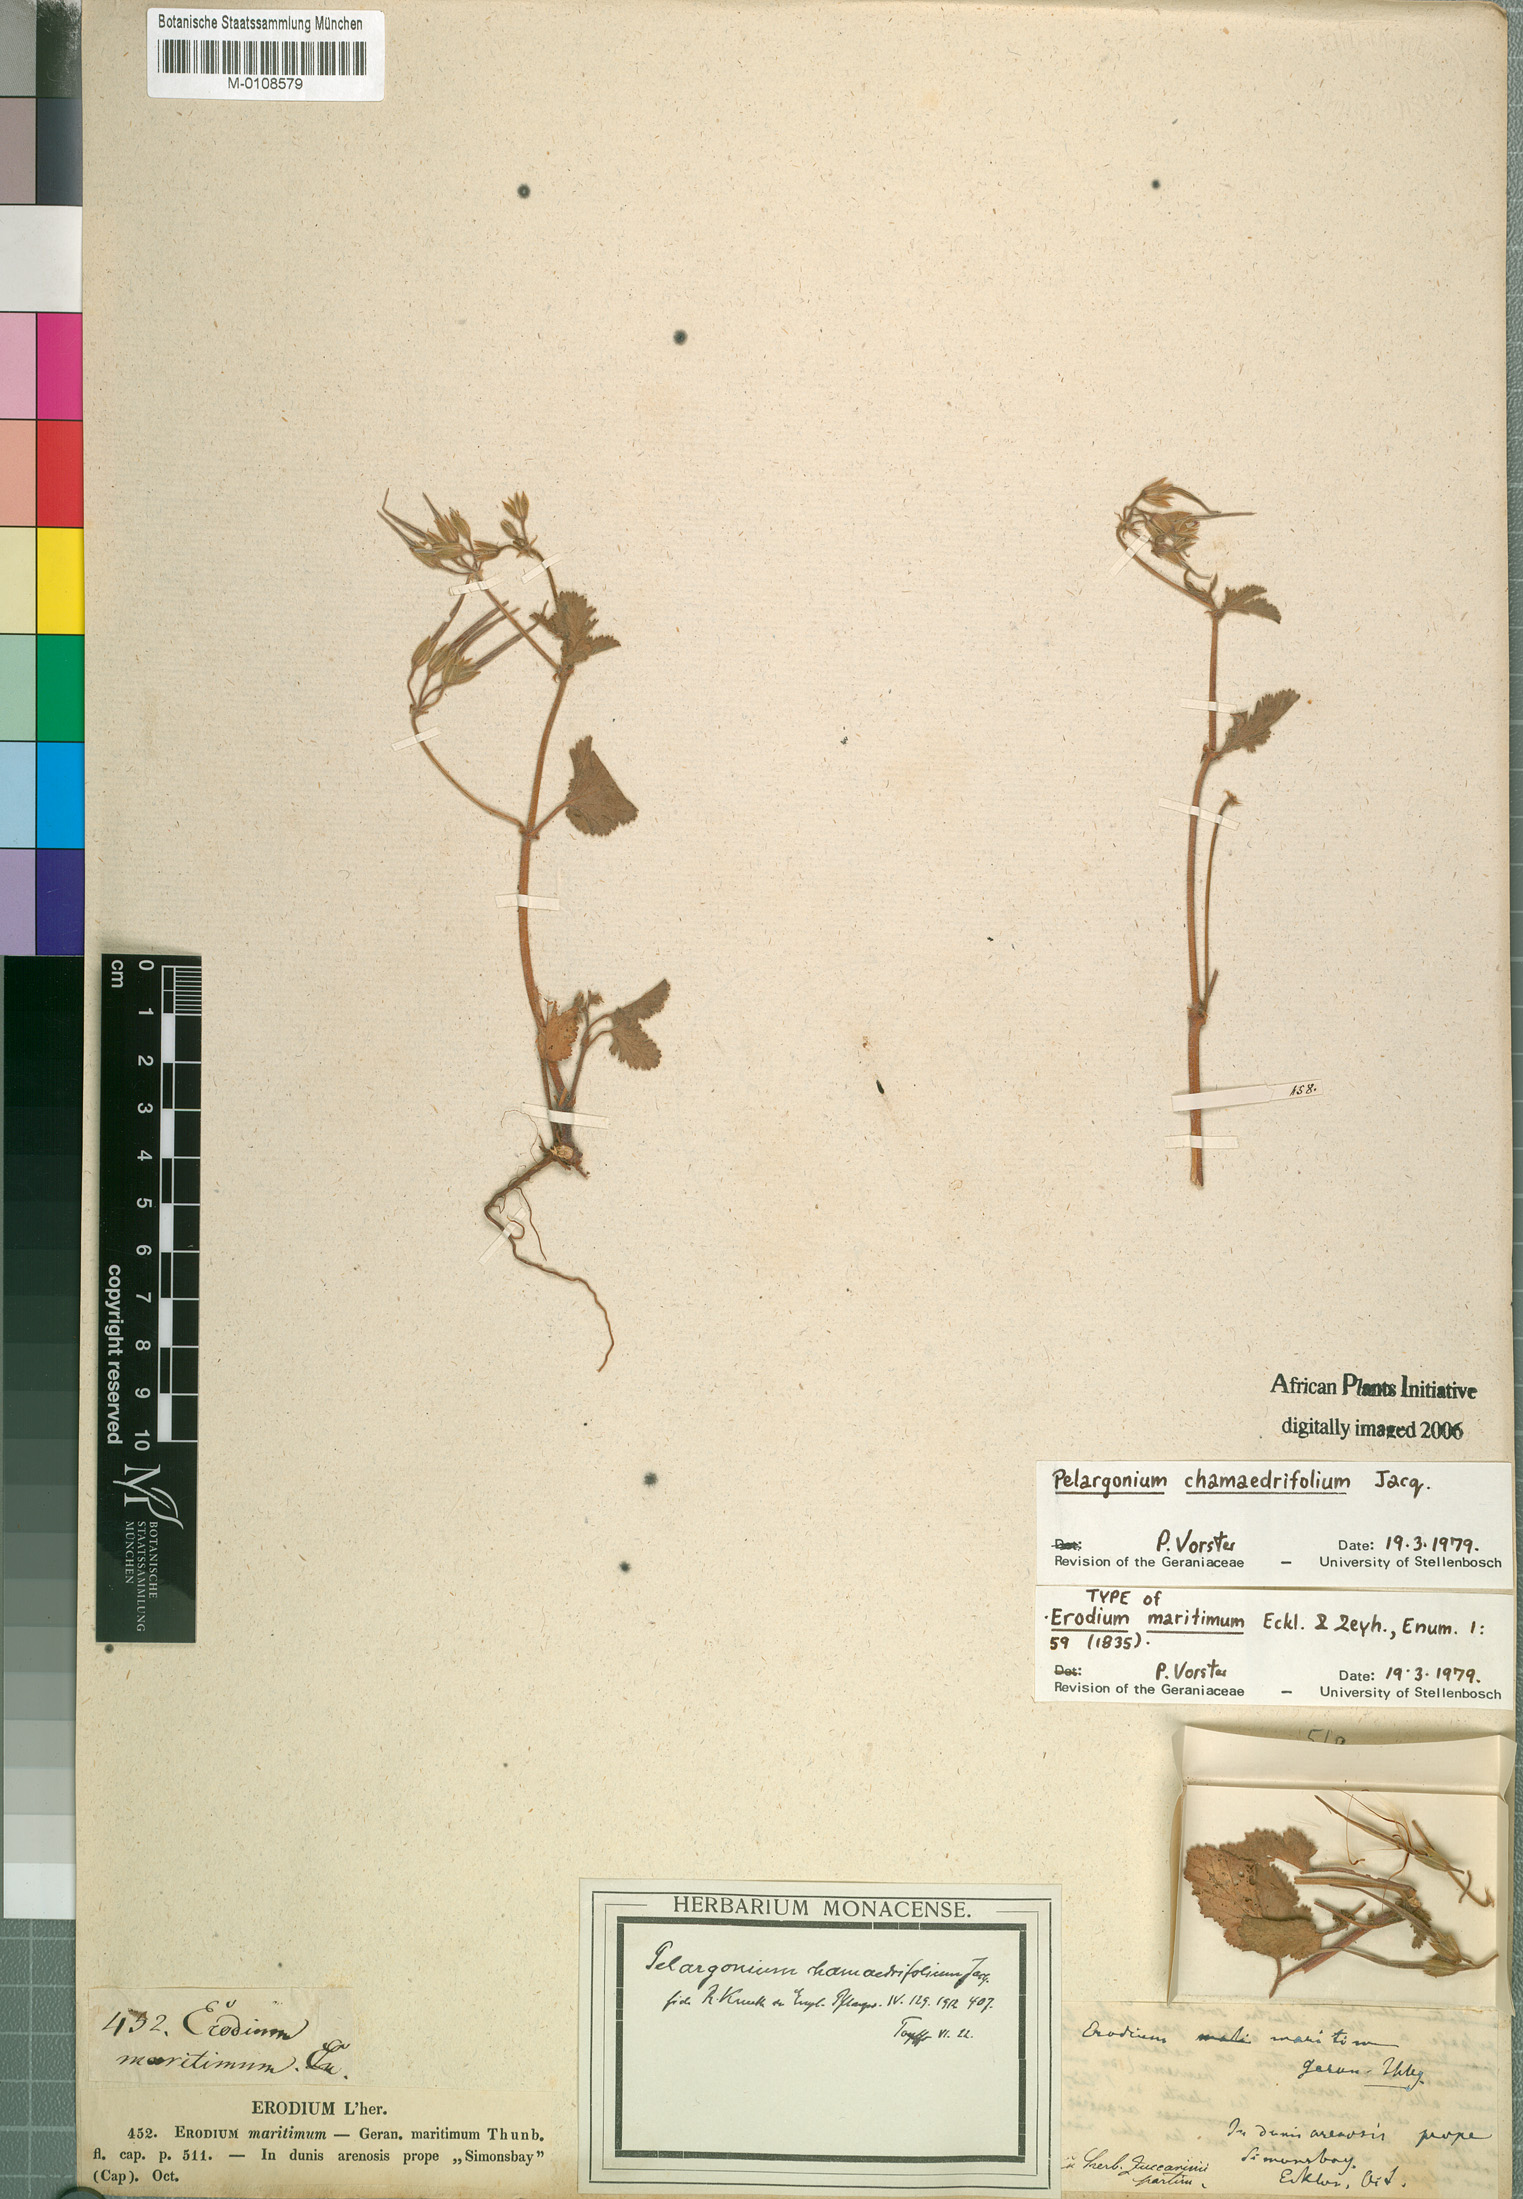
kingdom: Plantae
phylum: Tracheophyta
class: Magnoliopsida
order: Geraniales
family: Geraniaceae
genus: Pelargonium
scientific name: Pelargonium chamaedryfolium
